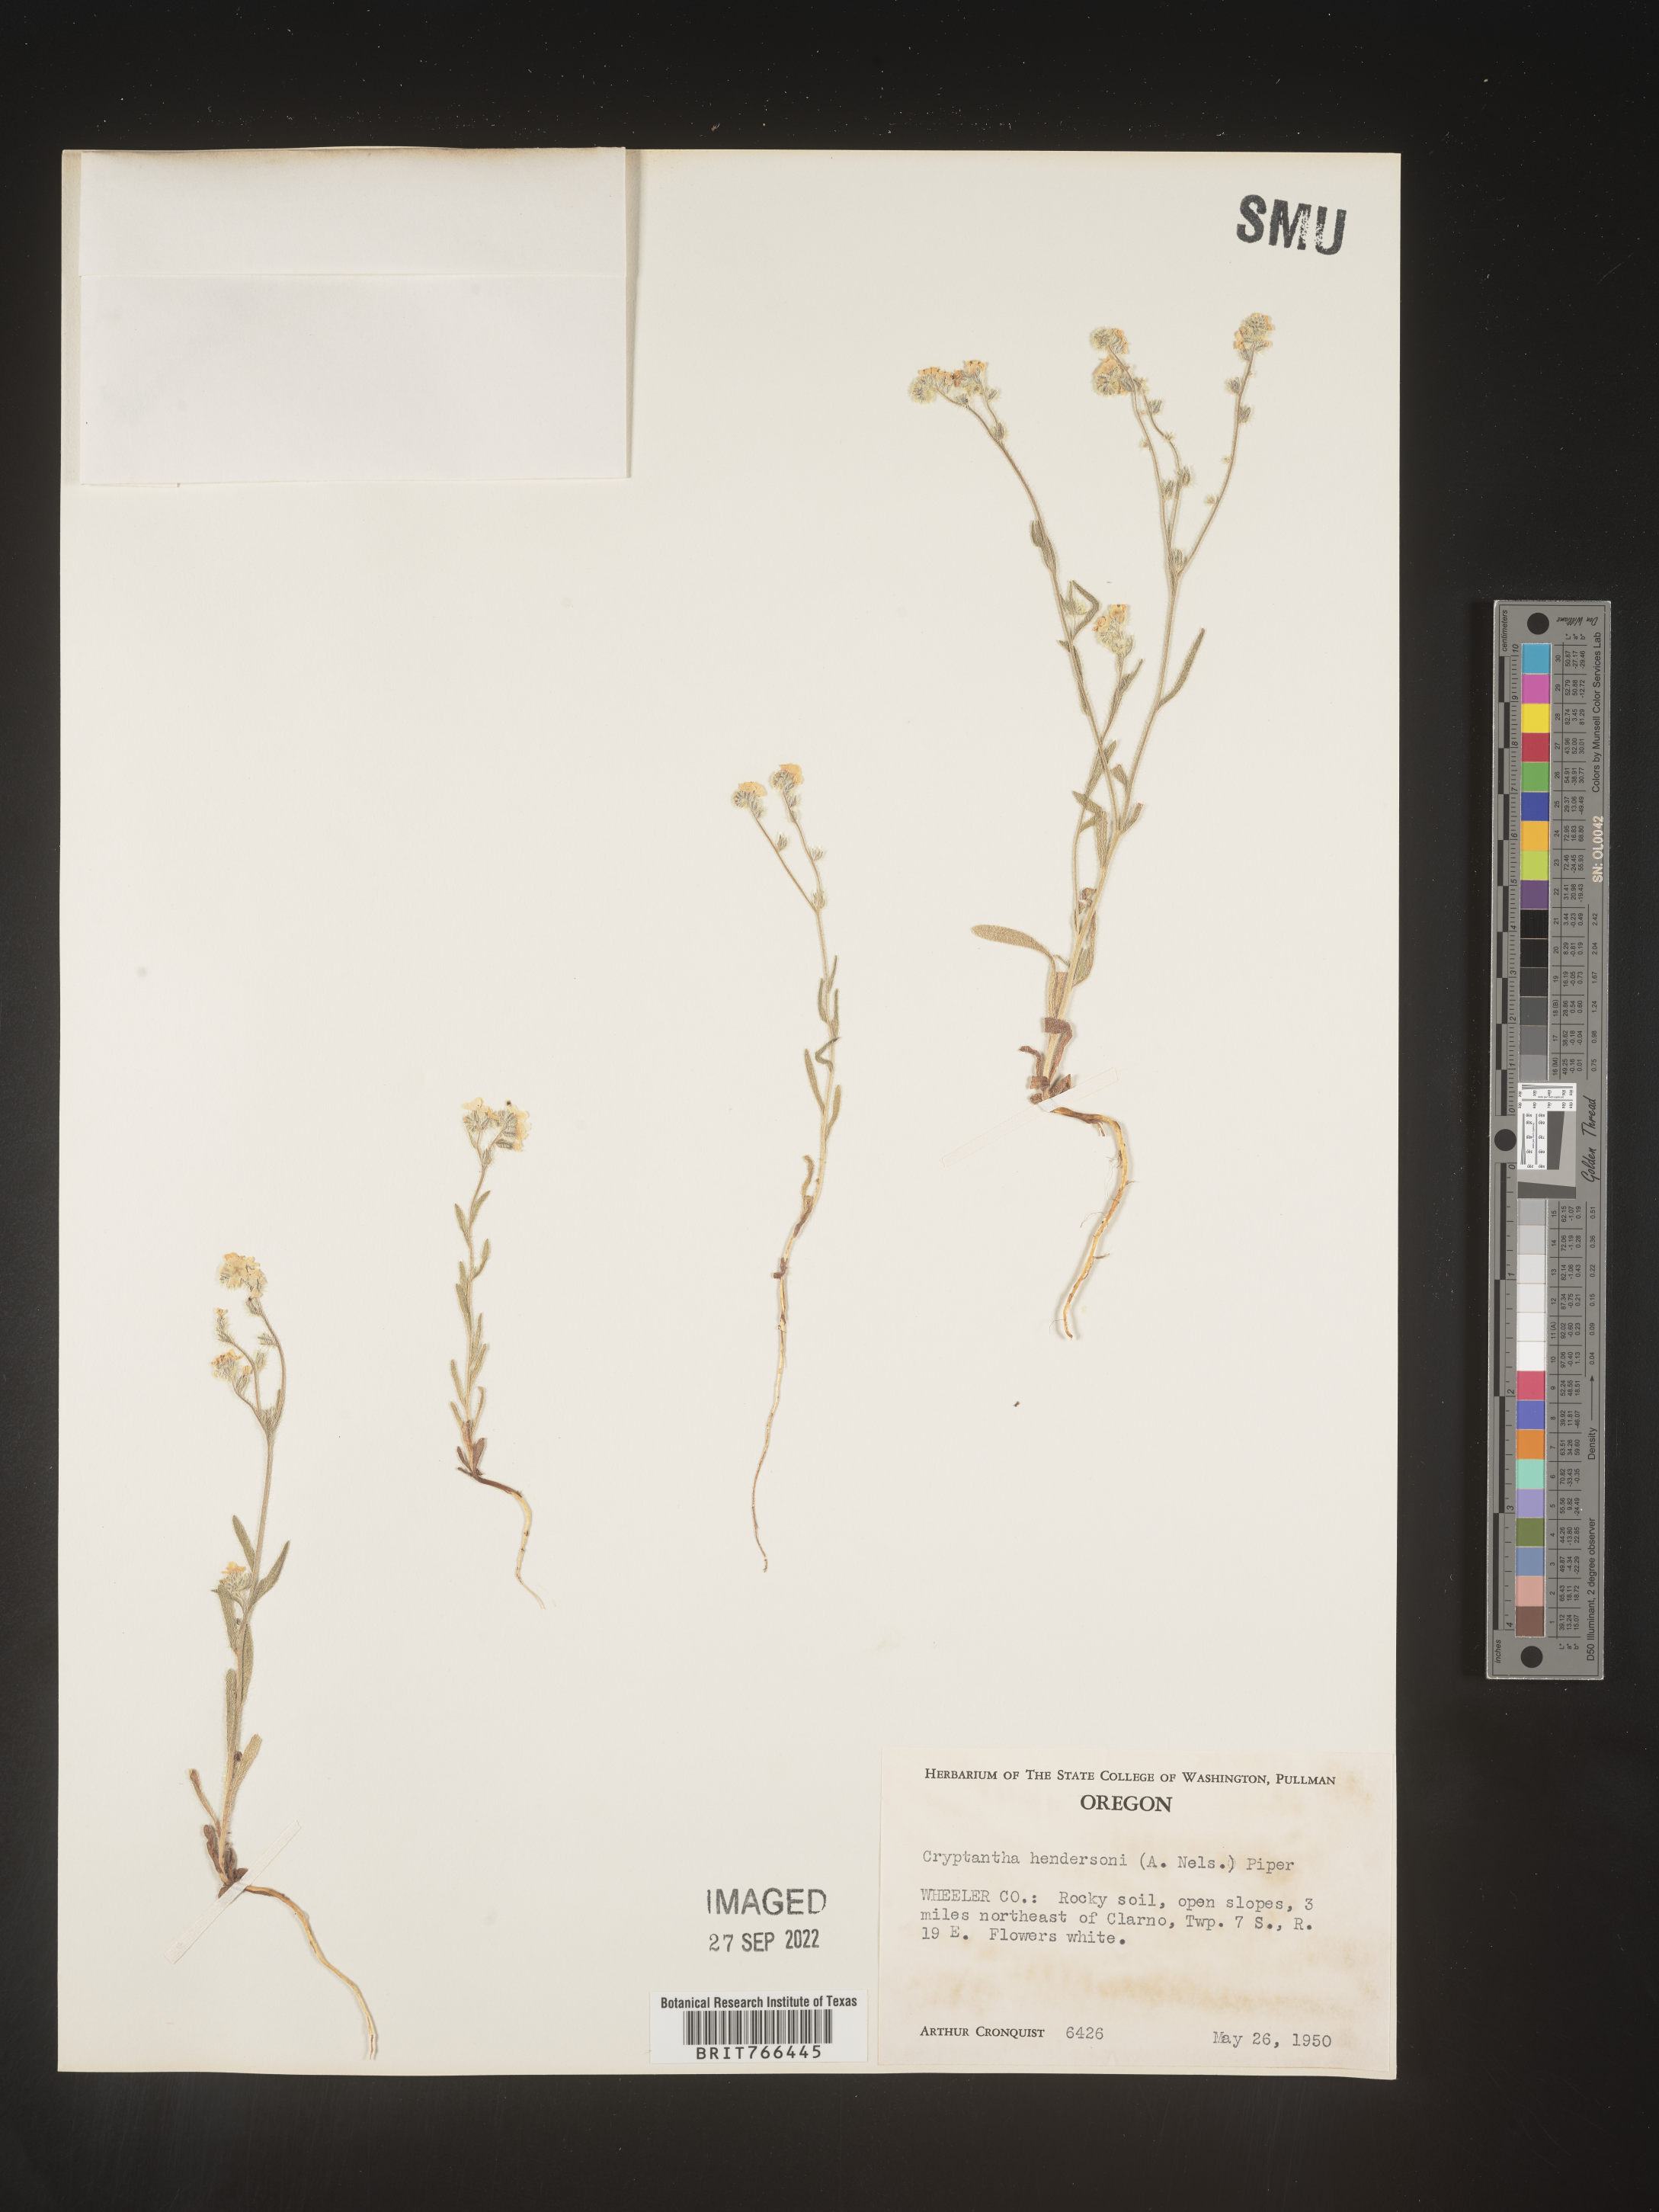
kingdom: Plantae
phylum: Tracheophyta
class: Magnoliopsida
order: Boraginales
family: Boraginaceae
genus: Cryptantha
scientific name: Cryptantha
